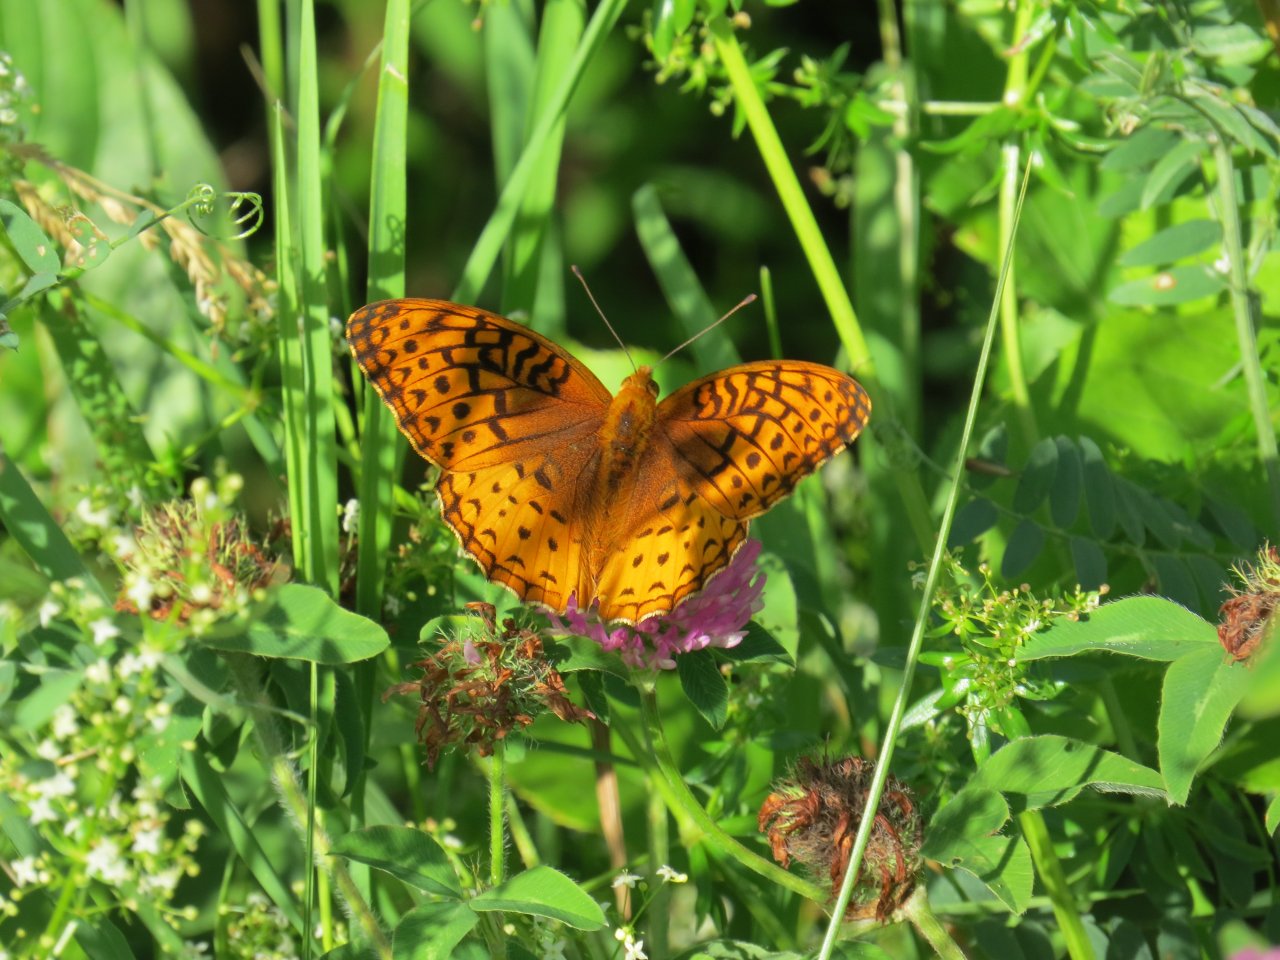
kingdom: Animalia
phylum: Arthropoda
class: Insecta
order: Lepidoptera
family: Nymphalidae
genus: Speyeria
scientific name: Speyeria cybele
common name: Great Spangled Fritillary
